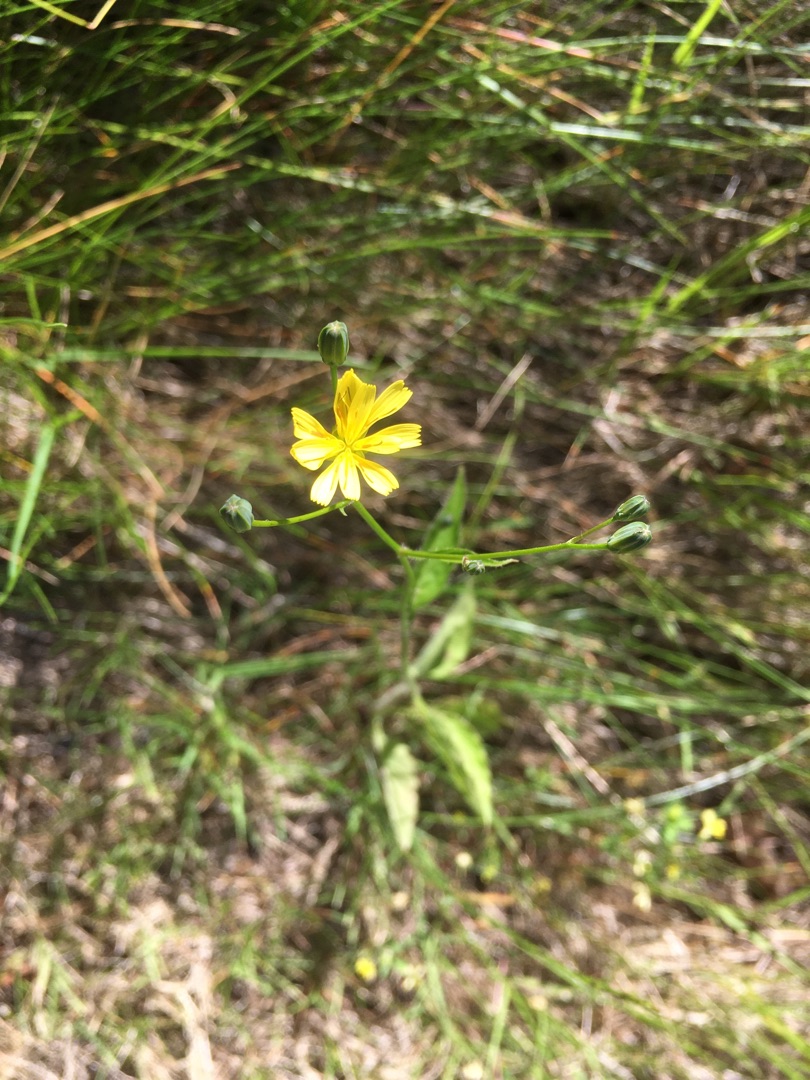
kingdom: Plantae
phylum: Tracheophyta
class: Magnoliopsida
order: Asterales
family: Asteraceae
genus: Lapsana
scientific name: Lapsana communis
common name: Haremad
